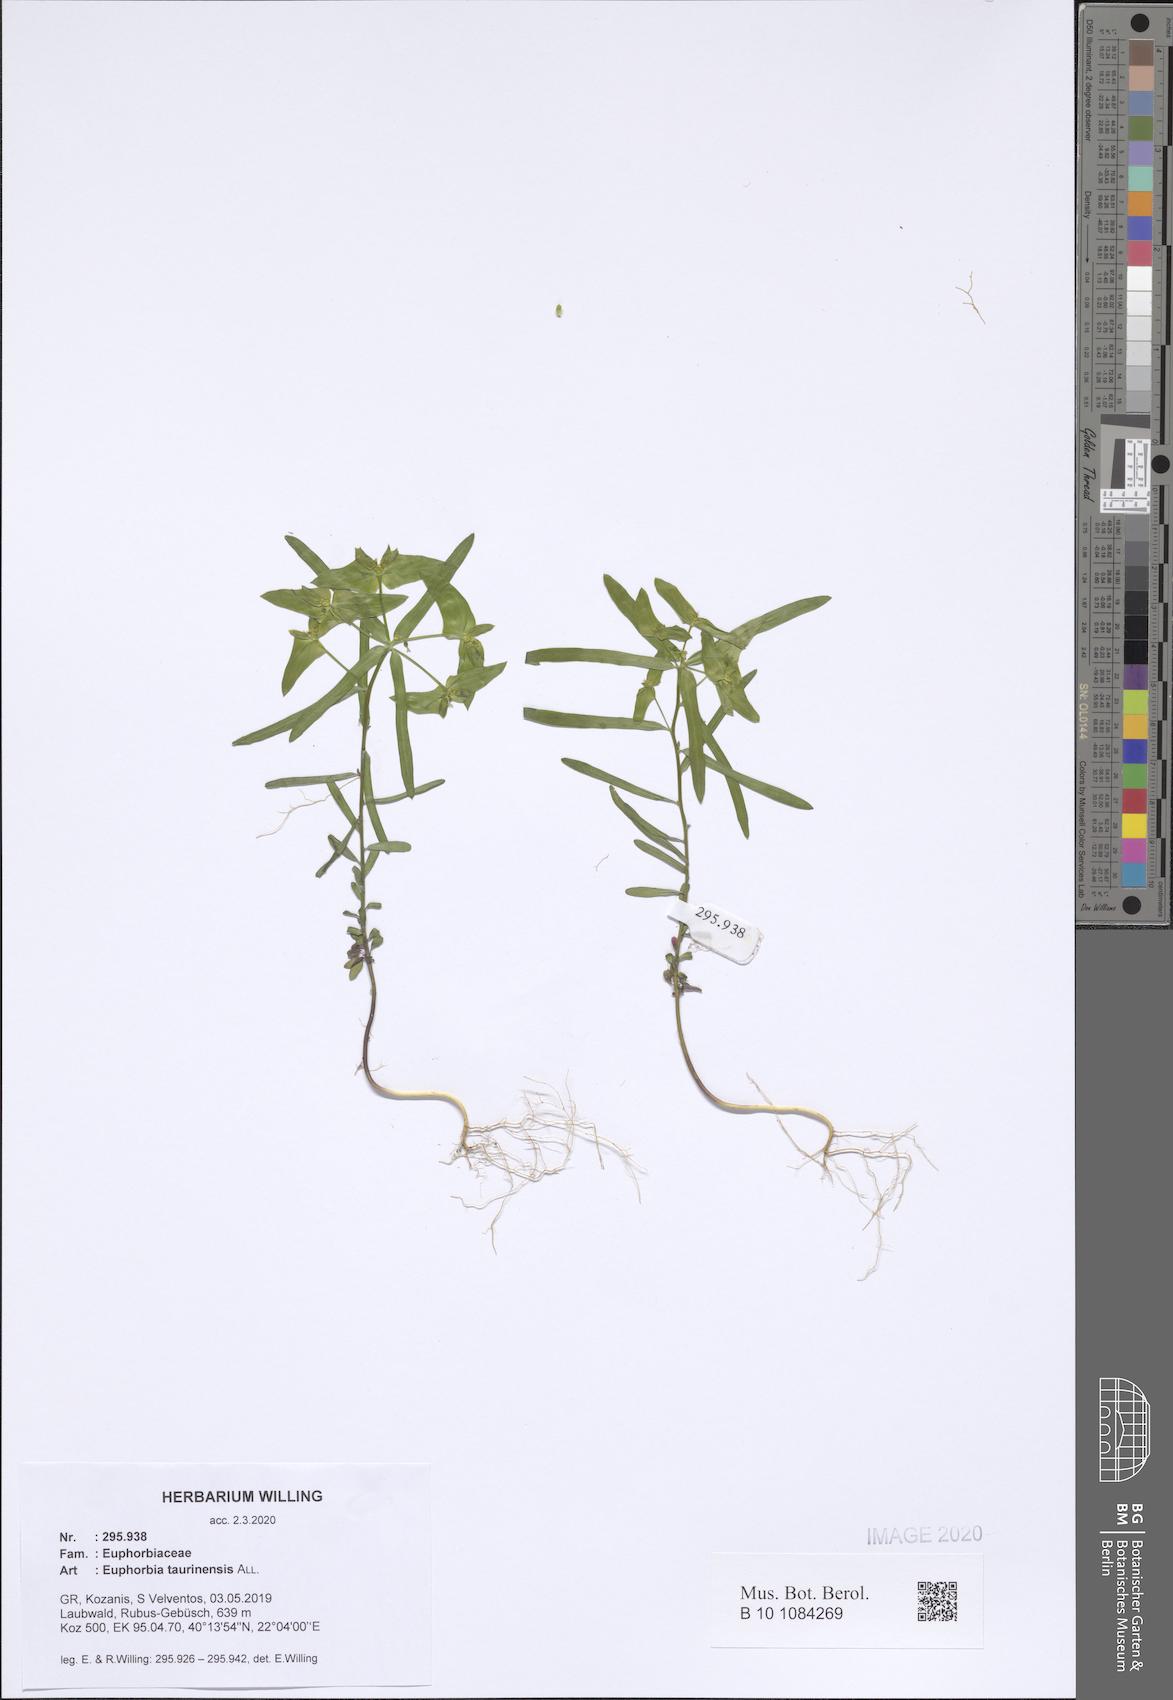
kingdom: Plantae
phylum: Tracheophyta
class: Magnoliopsida
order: Malpighiales
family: Euphorbiaceae
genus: Euphorbia
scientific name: Euphorbia taurinensis
